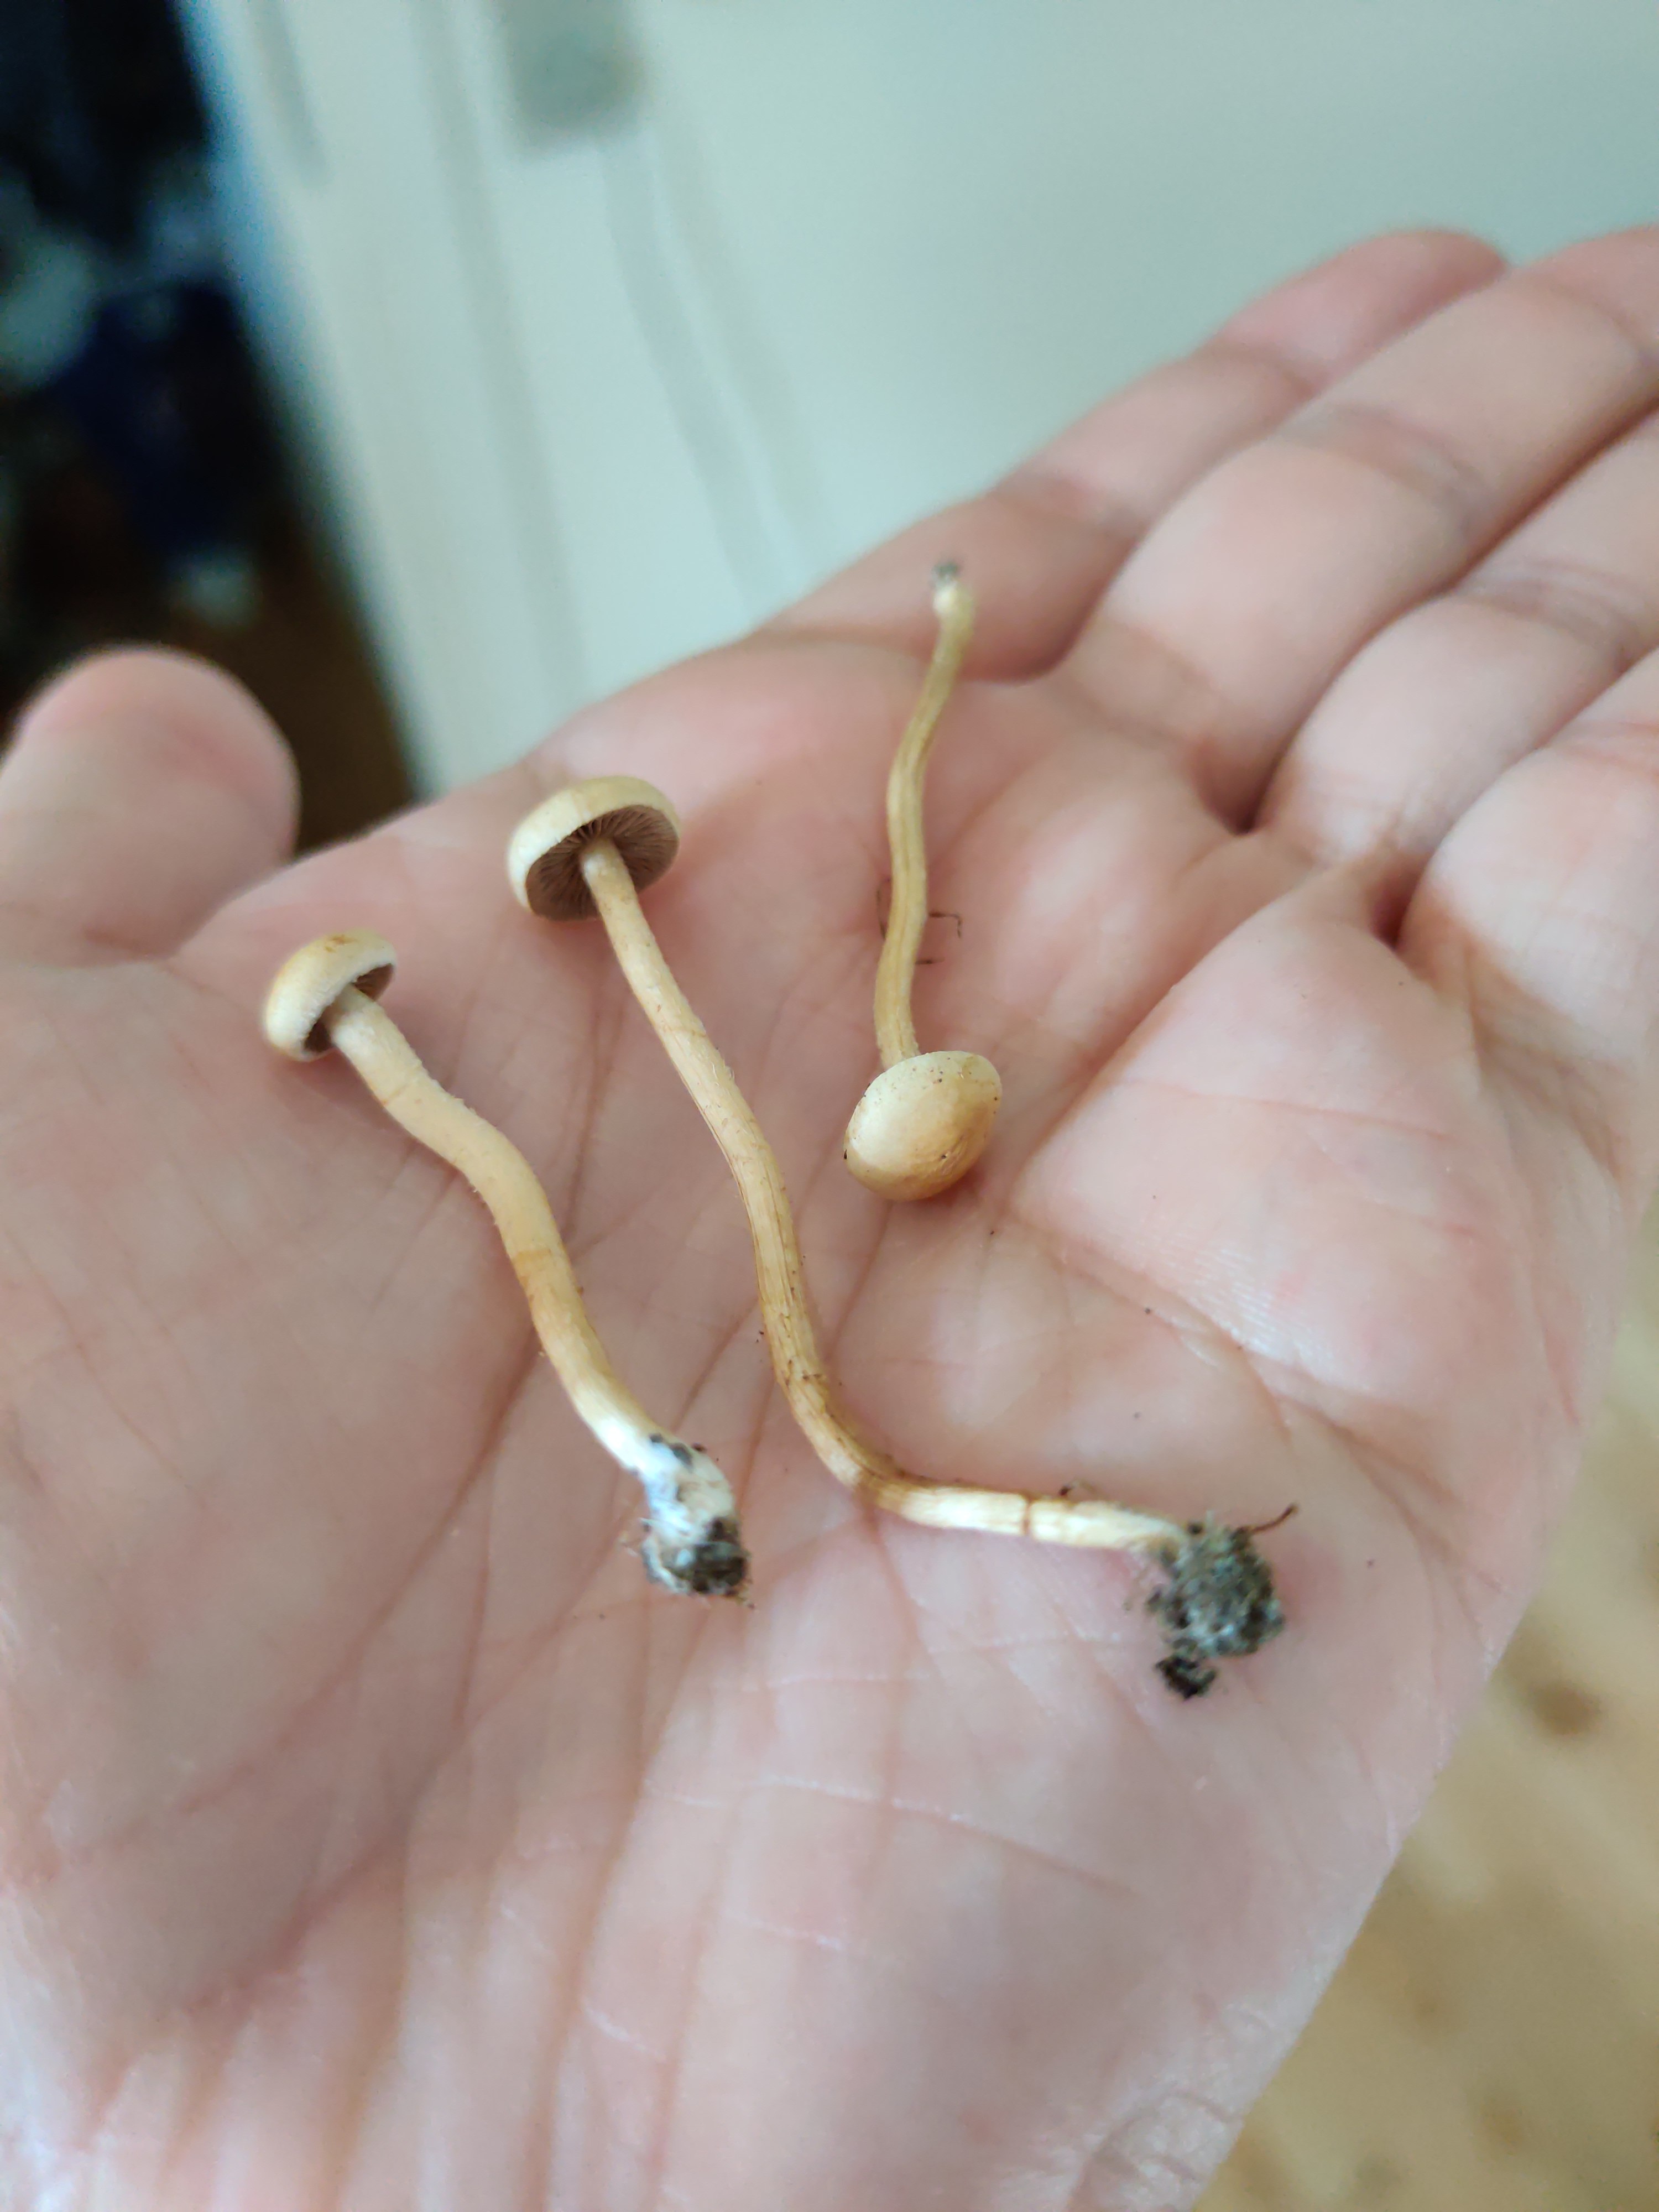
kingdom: Fungi
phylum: Basidiomycota
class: Agaricomycetes
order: Agaricales
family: Strophariaceae
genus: Agrocybe
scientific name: Agrocybe pediades
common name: almindelig agerhat
